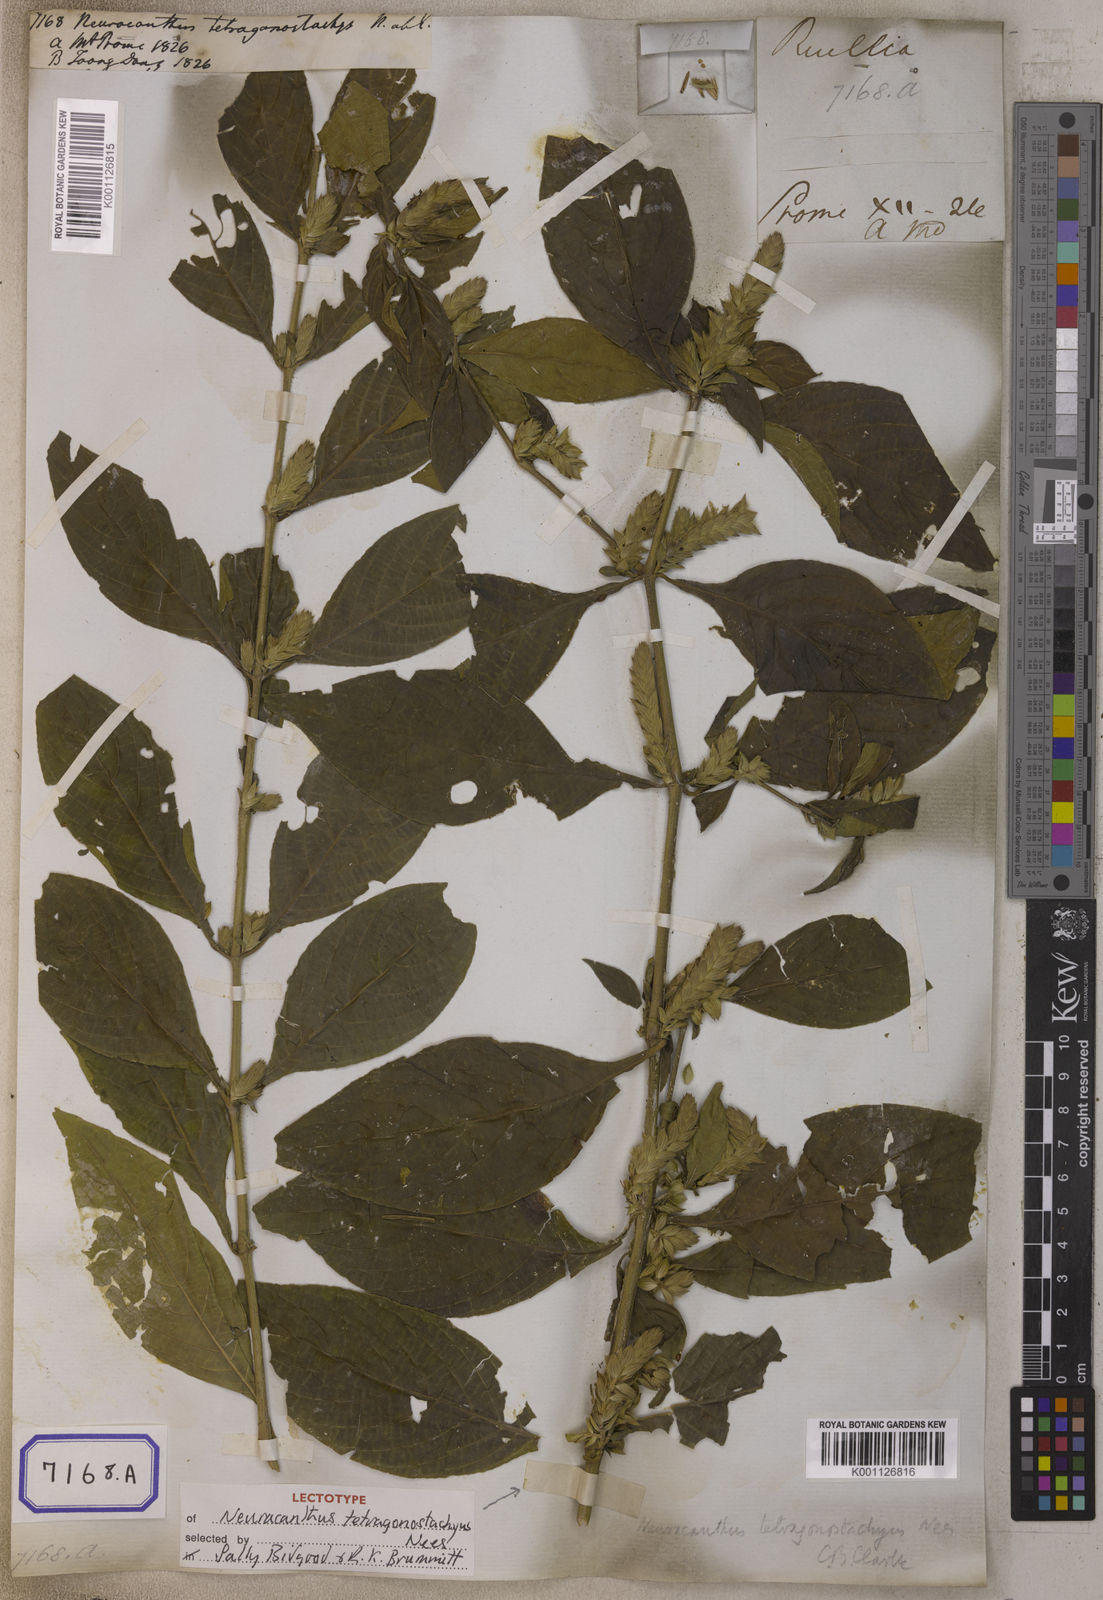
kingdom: Plantae
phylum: Tracheophyta
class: Magnoliopsida
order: Lamiales
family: Acanthaceae
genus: Neuracanthus
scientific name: Neuracanthus
